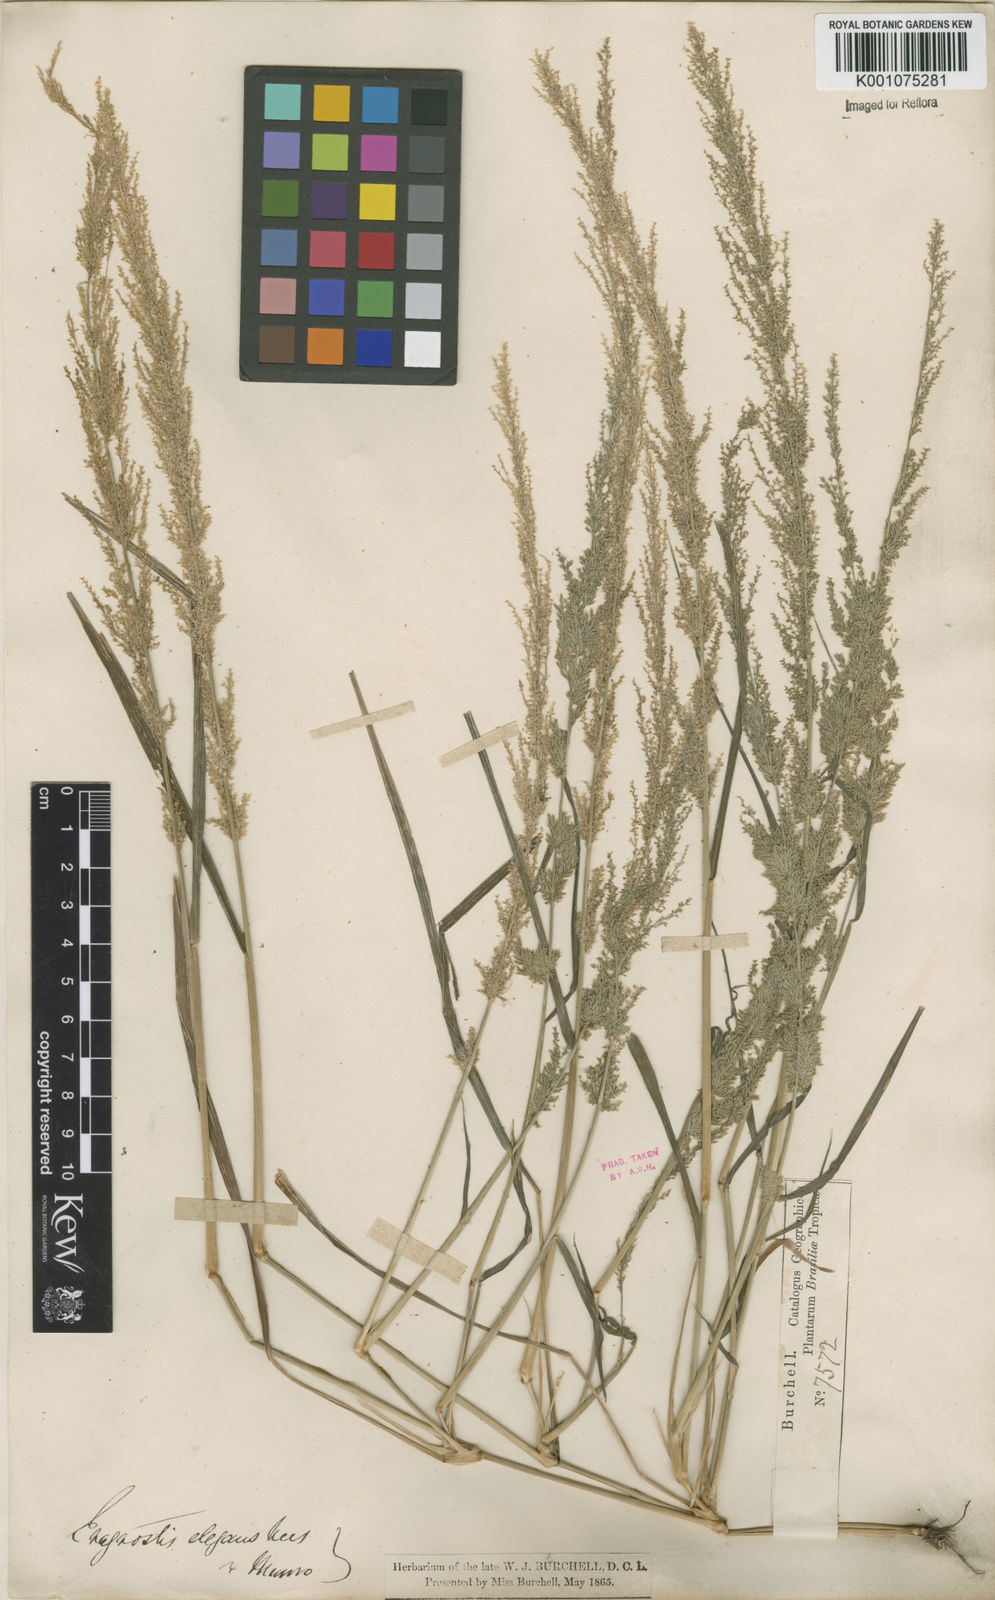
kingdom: Plantae
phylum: Tracheophyta
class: Liliopsida
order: Poales
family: Poaceae
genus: Eragrostis
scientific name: Eragrostis japonica
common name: Pond lovegrass
